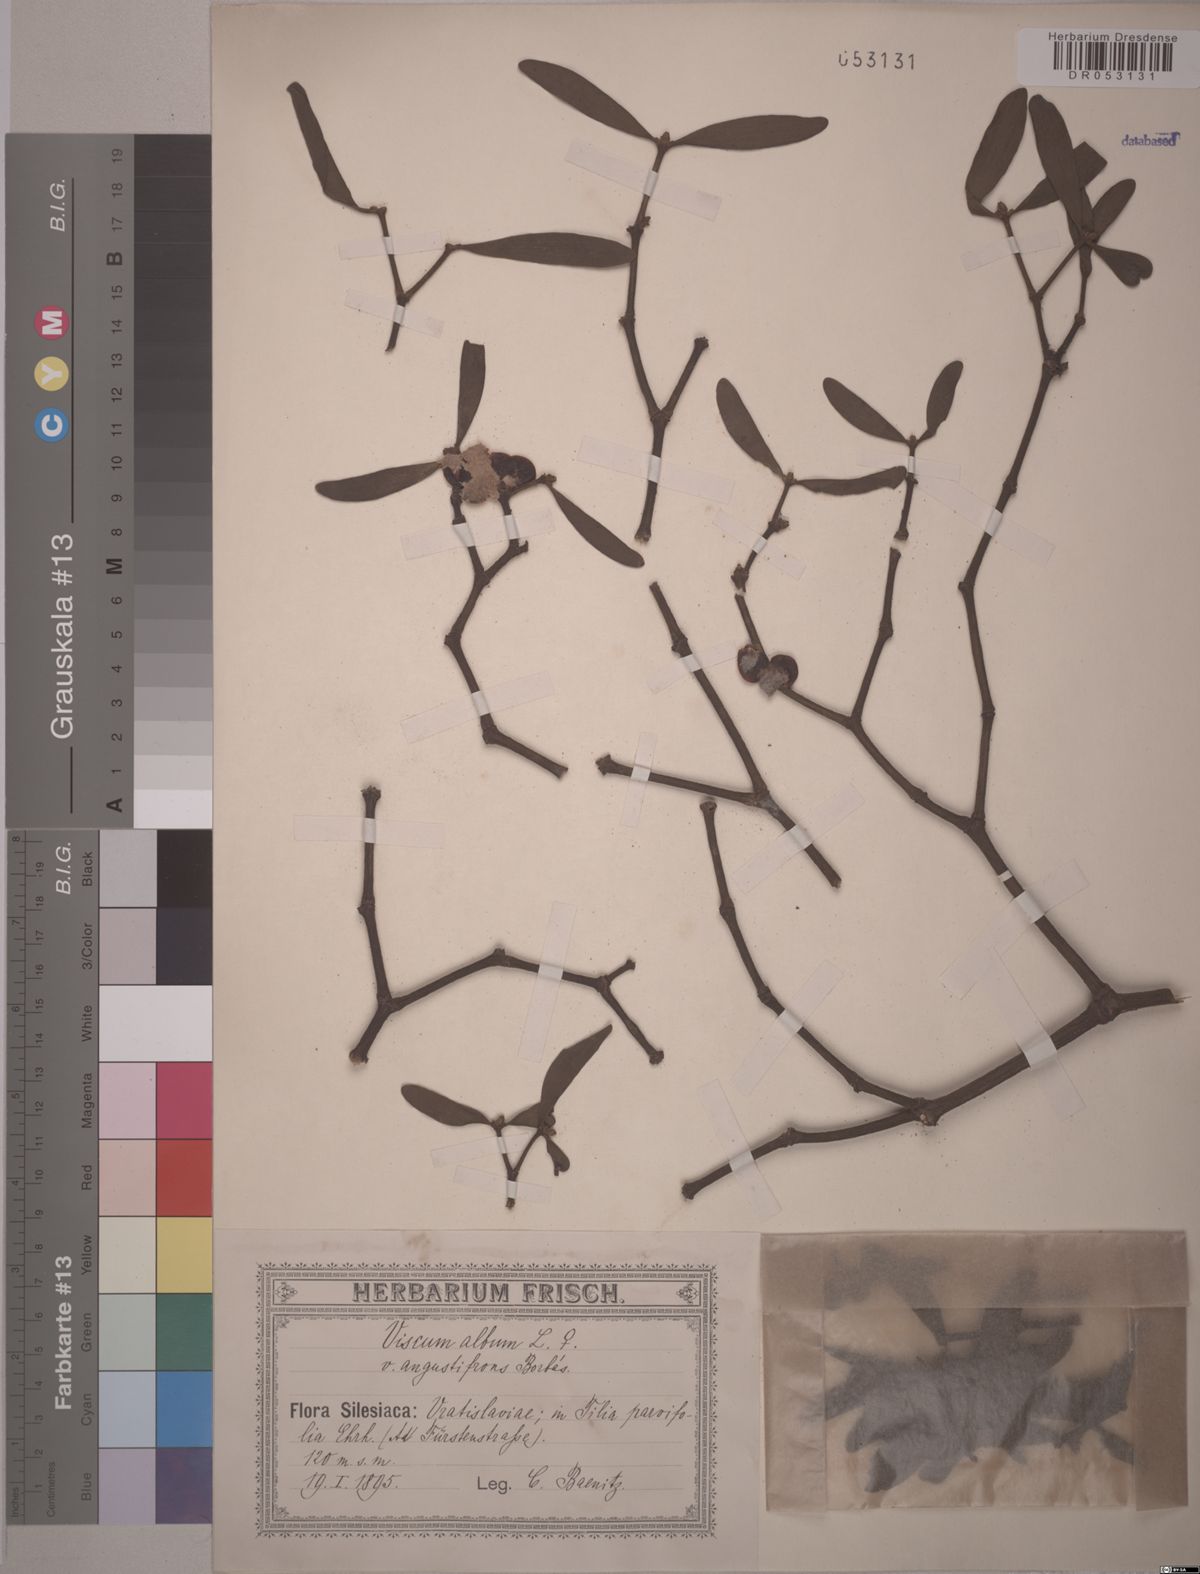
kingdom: Plantae
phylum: Tracheophyta
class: Magnoliopsida
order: Santalales
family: Viscaceae
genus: Viscum
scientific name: Viscum album
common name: Mistletoe
